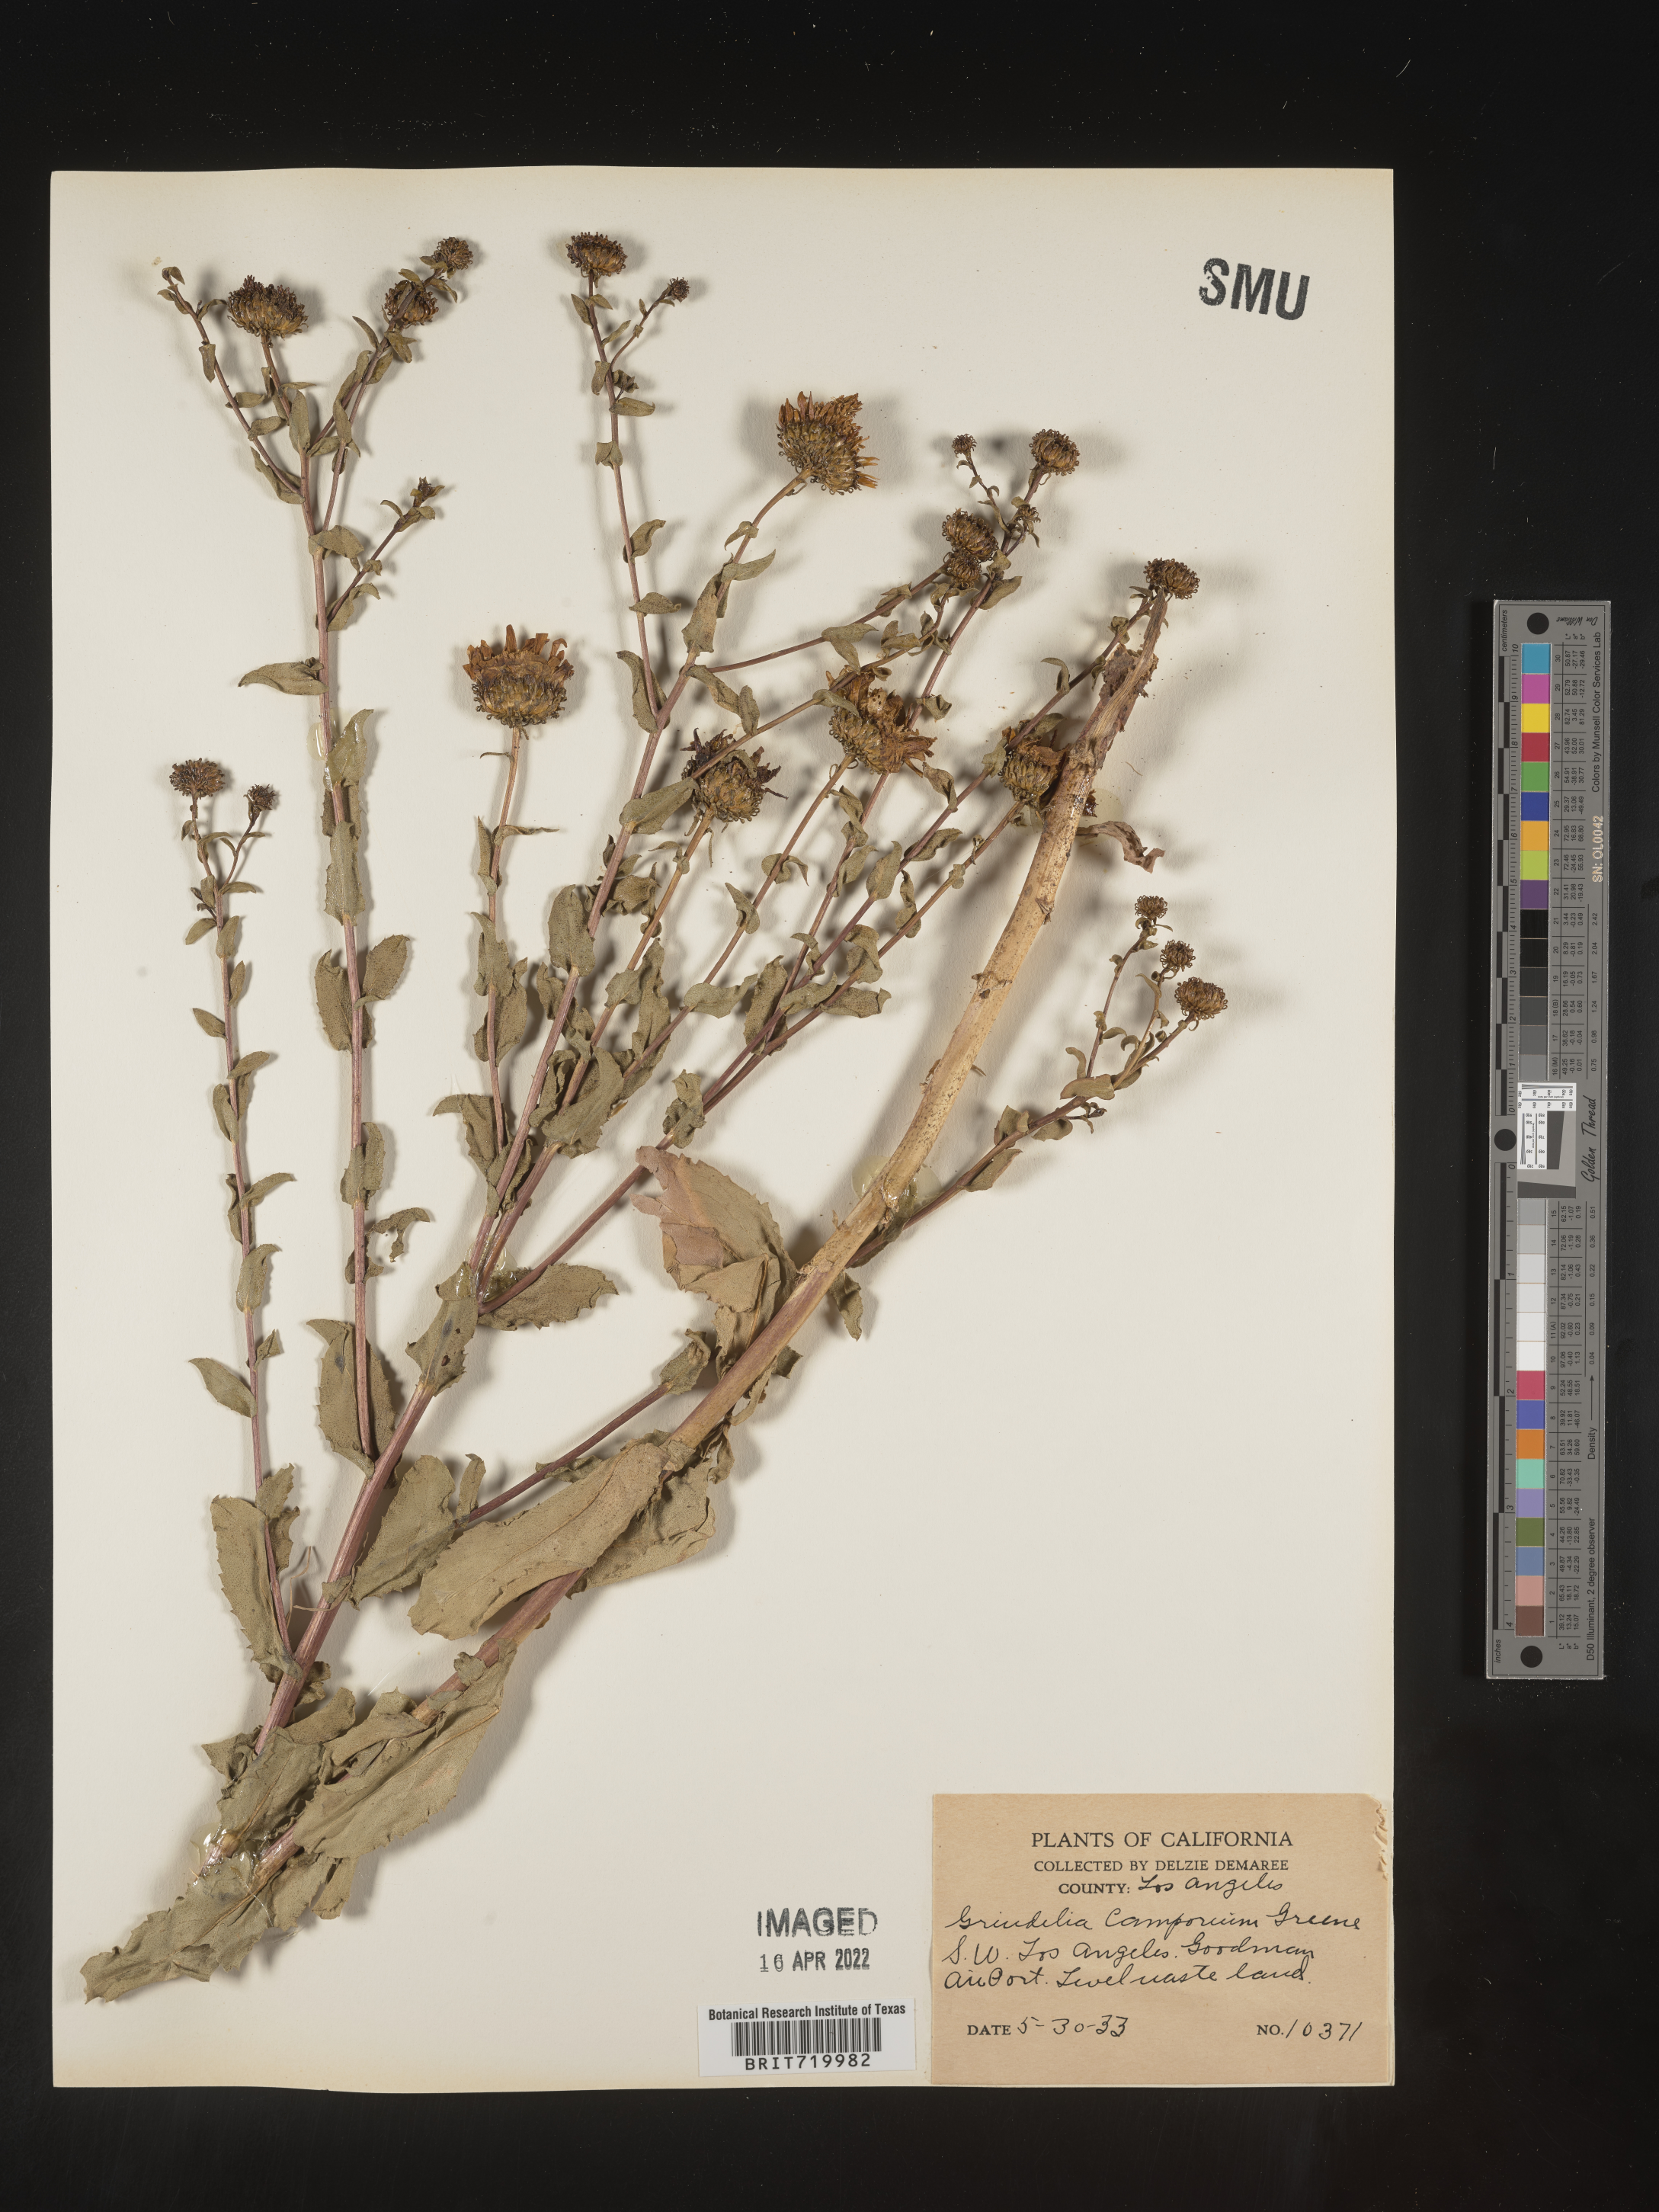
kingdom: Plantae
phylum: Tracheophyta
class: Magnoliopsida
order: Asterales
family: Asteraceae
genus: Grindelia
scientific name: Grindelia hirsutula
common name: Hairy gumweed
